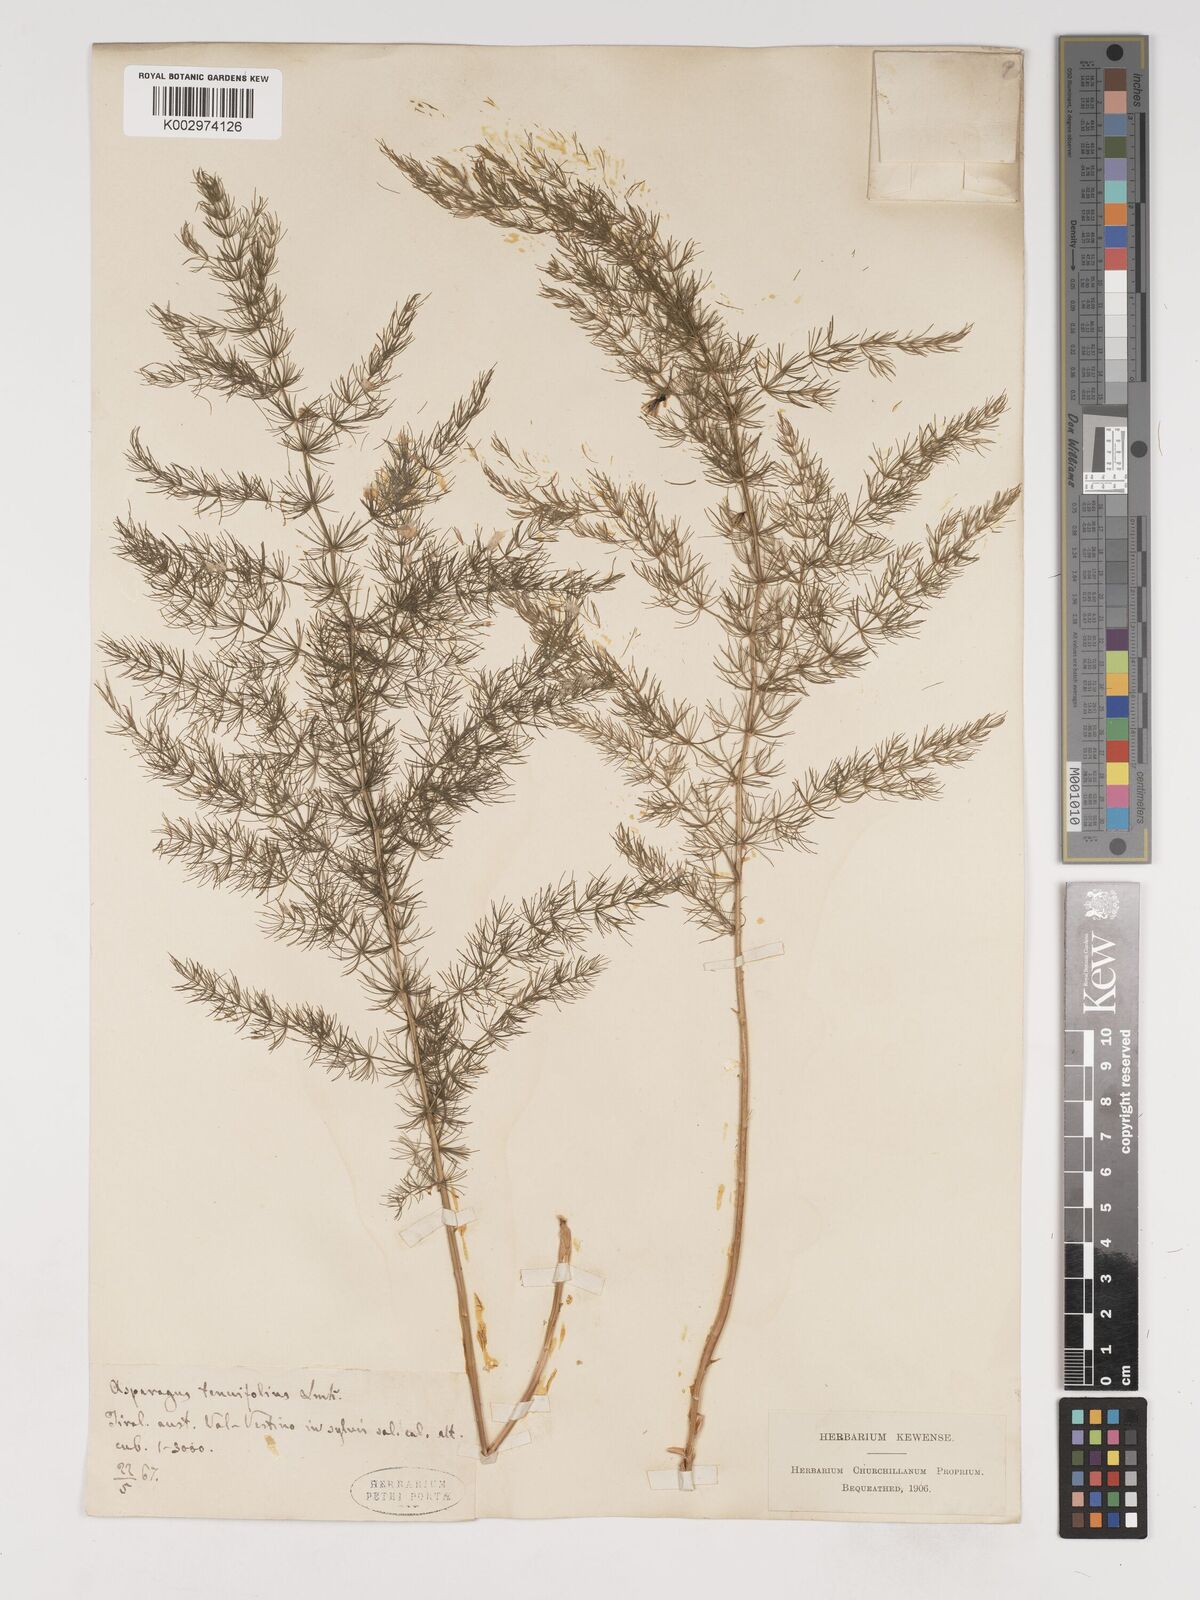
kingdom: Plantae
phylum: Tracheophyta
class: Liliopsida
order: Asparagales
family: Asparagaceae
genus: Asparagus
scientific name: Asparagus tenuifolius
